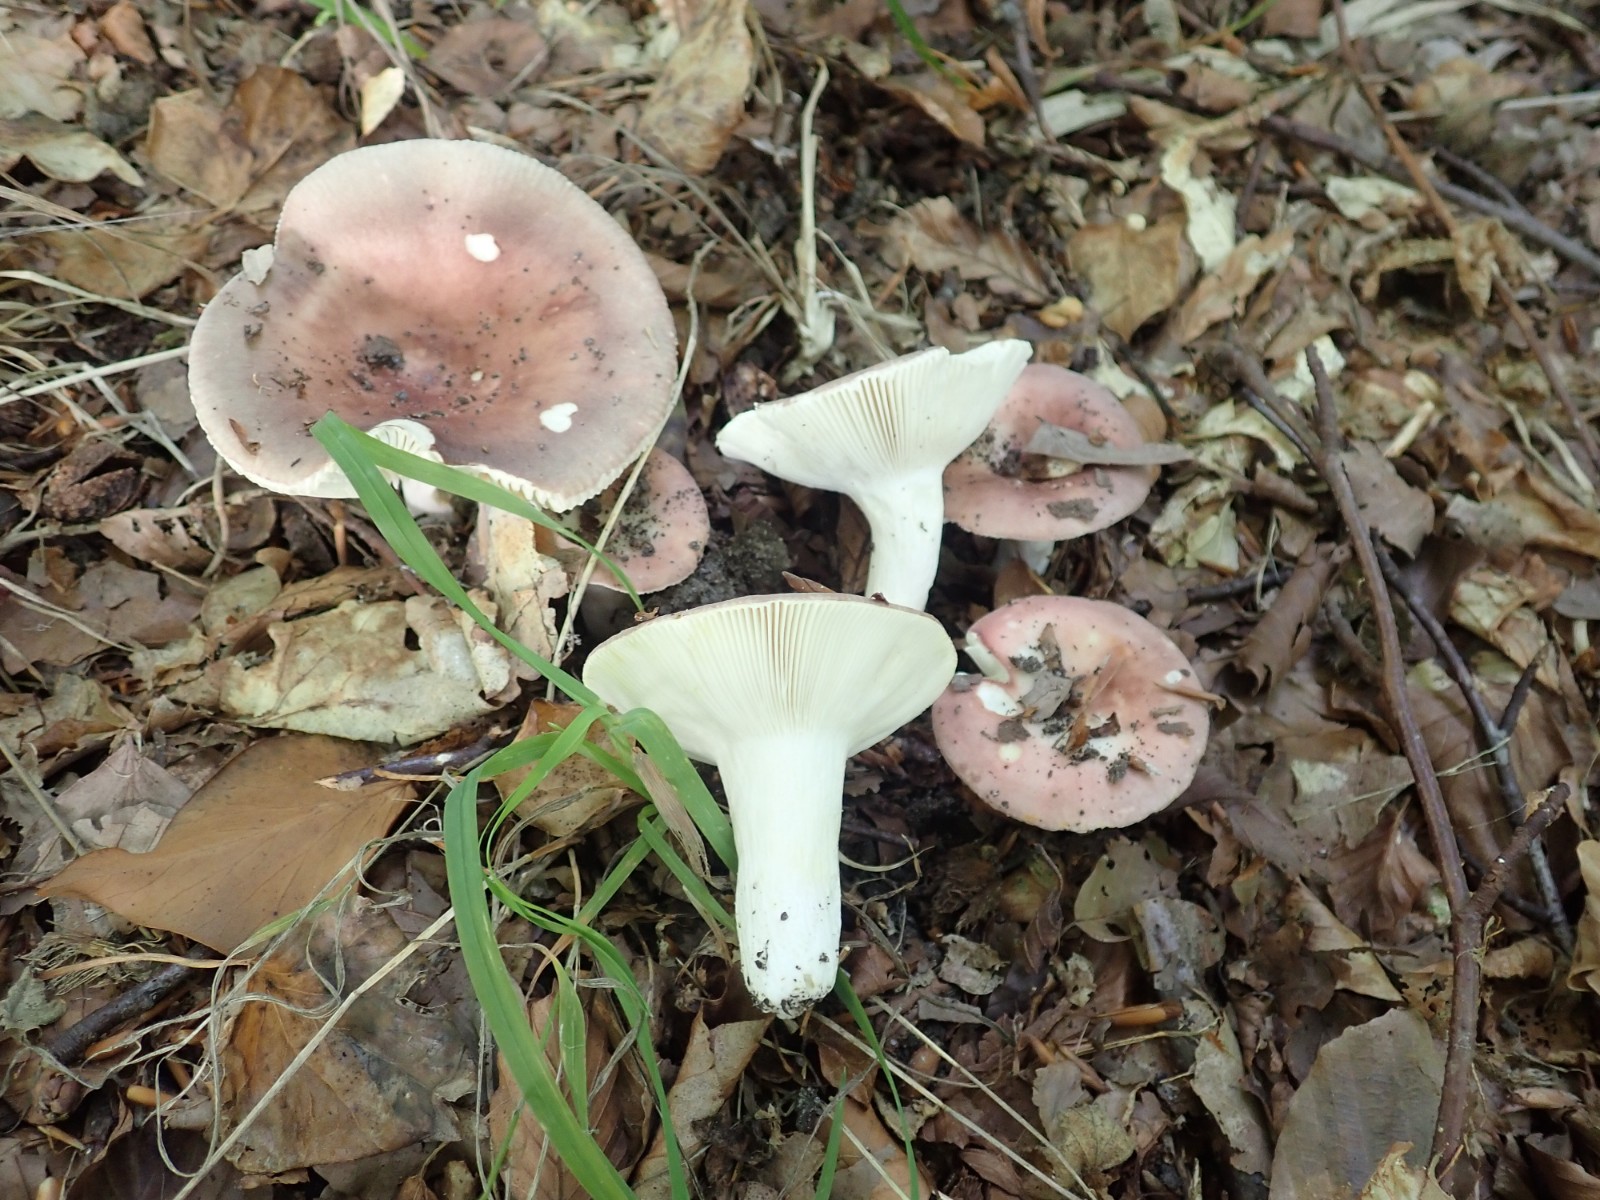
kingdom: Fungi
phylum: Basidiomycota
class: Agaricomycetes
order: Russulales
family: Russulaceae
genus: Russula
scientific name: Russula vesca
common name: spiselig skørhat
